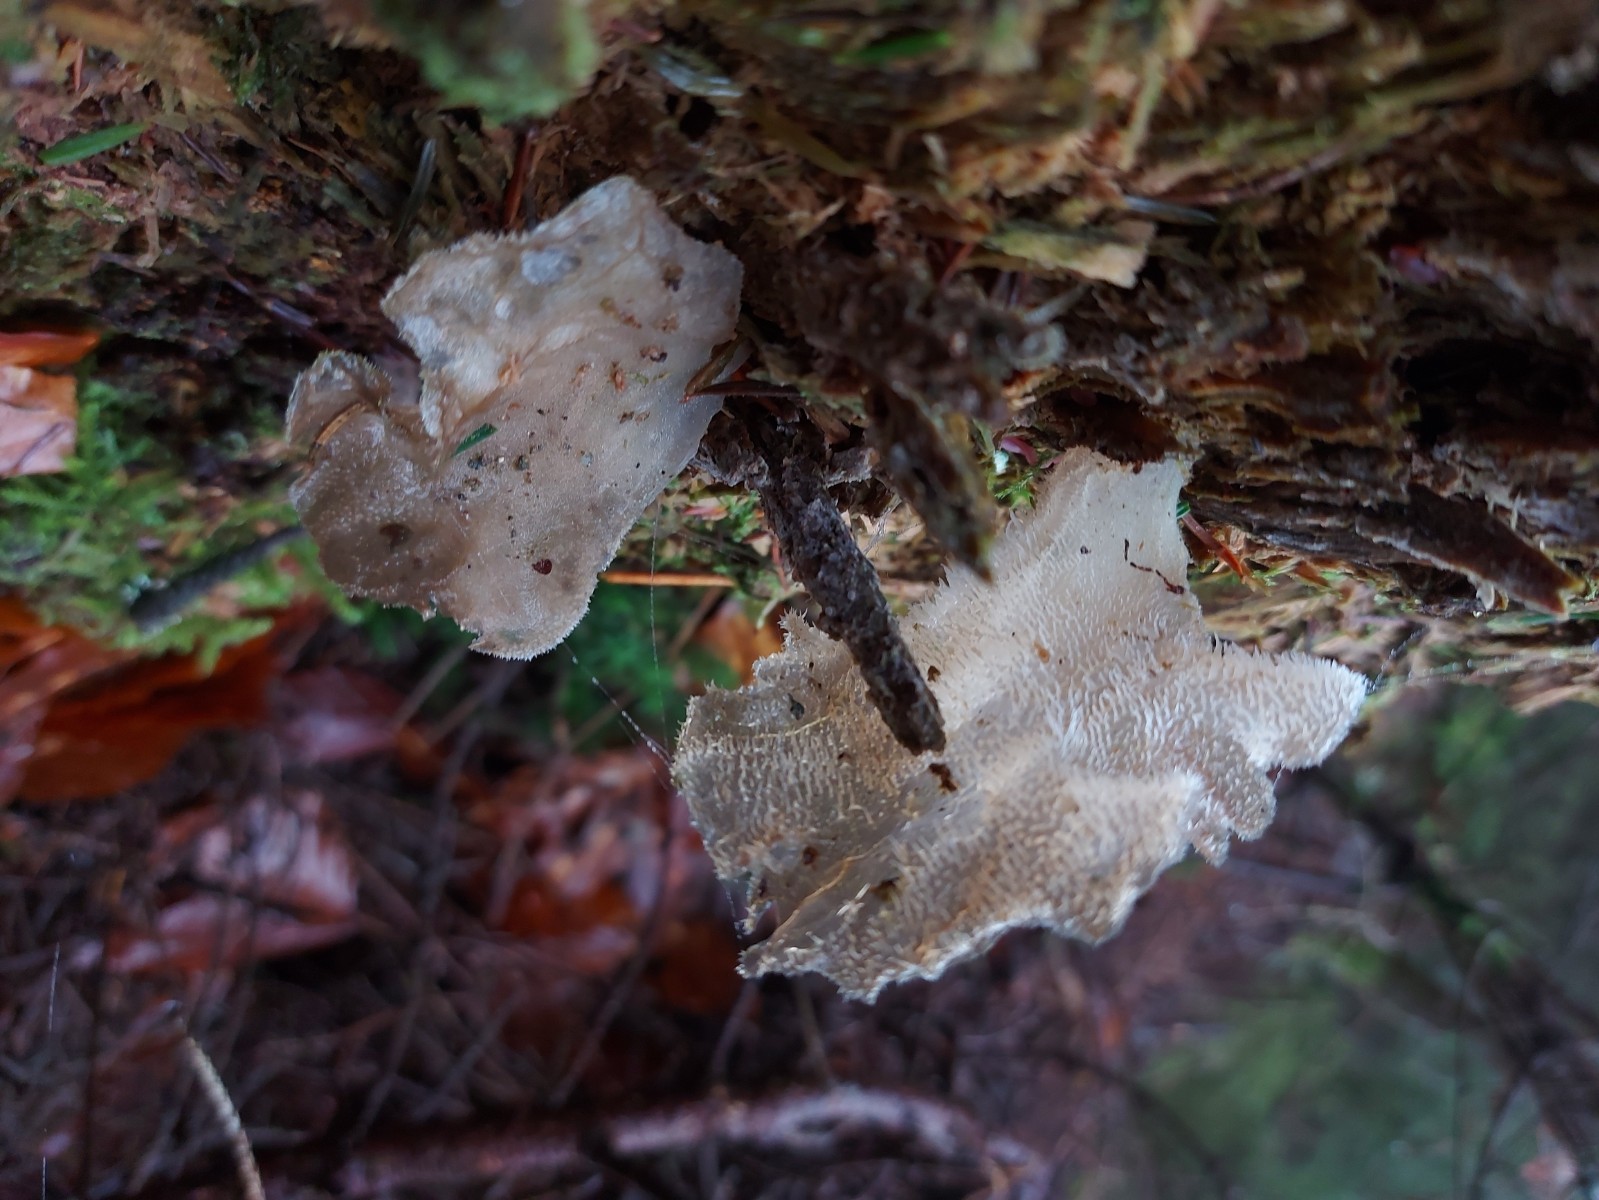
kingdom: Fungi
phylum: Basidiomycota
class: Agaricomycetes
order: Auriculariales
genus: Pseudohydnum
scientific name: Pseudohydnum gelatinosum
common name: bævretand
